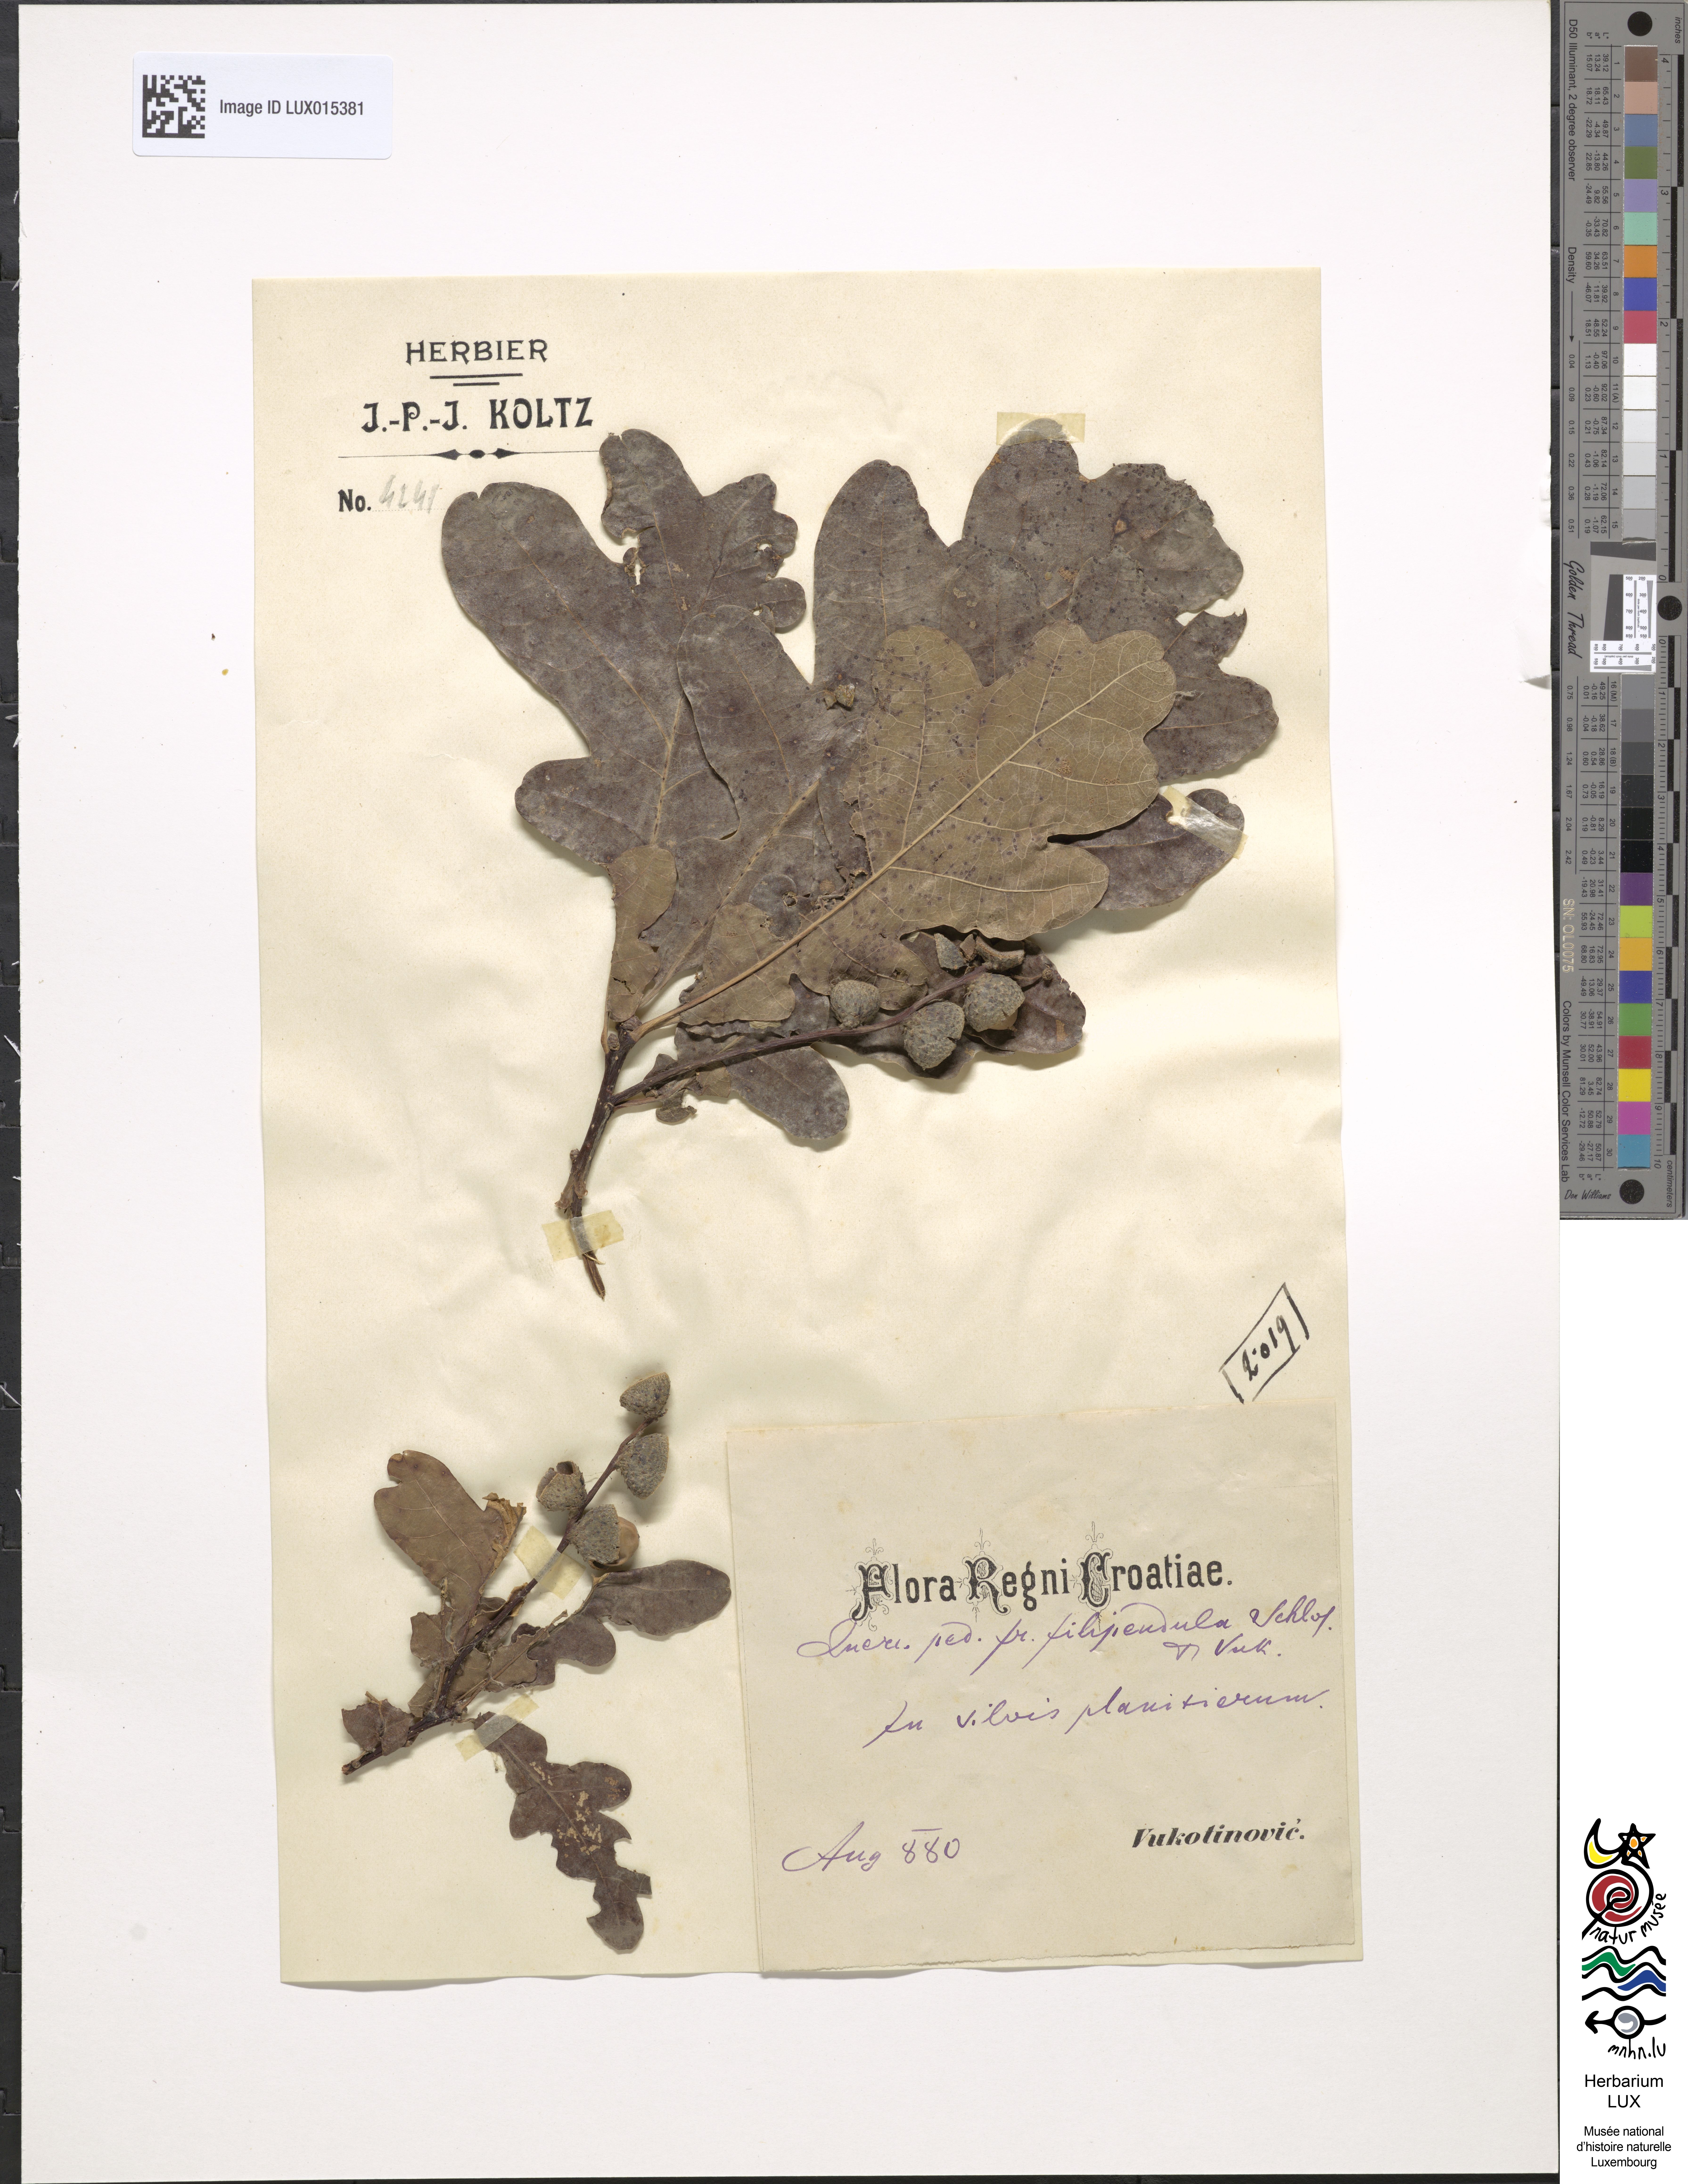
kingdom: Plantae
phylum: Tracheophyta
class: Magnoliopsida
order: Fagales
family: Fagaceae
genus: Quercus
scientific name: Quercus robur
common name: Pedunculate oak
